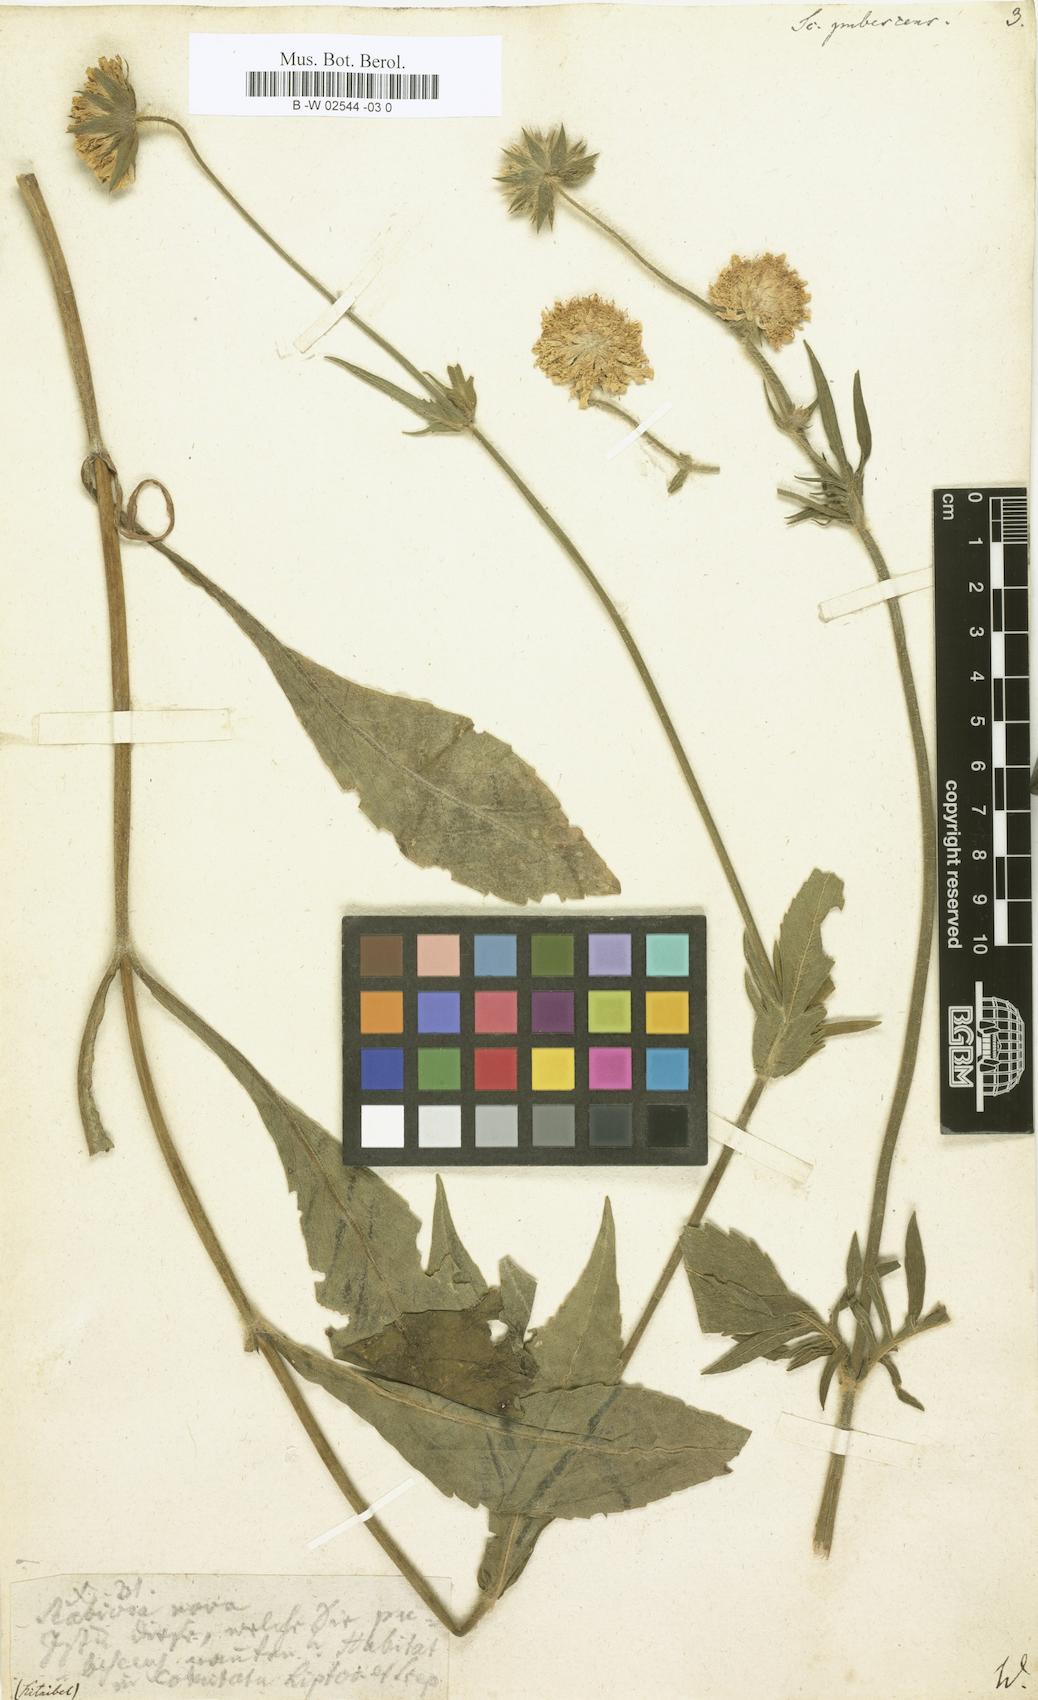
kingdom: Plantae
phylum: Tracheophyta
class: Magnoliopsida
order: Dipsacales
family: Caprifoliaceae
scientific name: Caprifoliaceae
